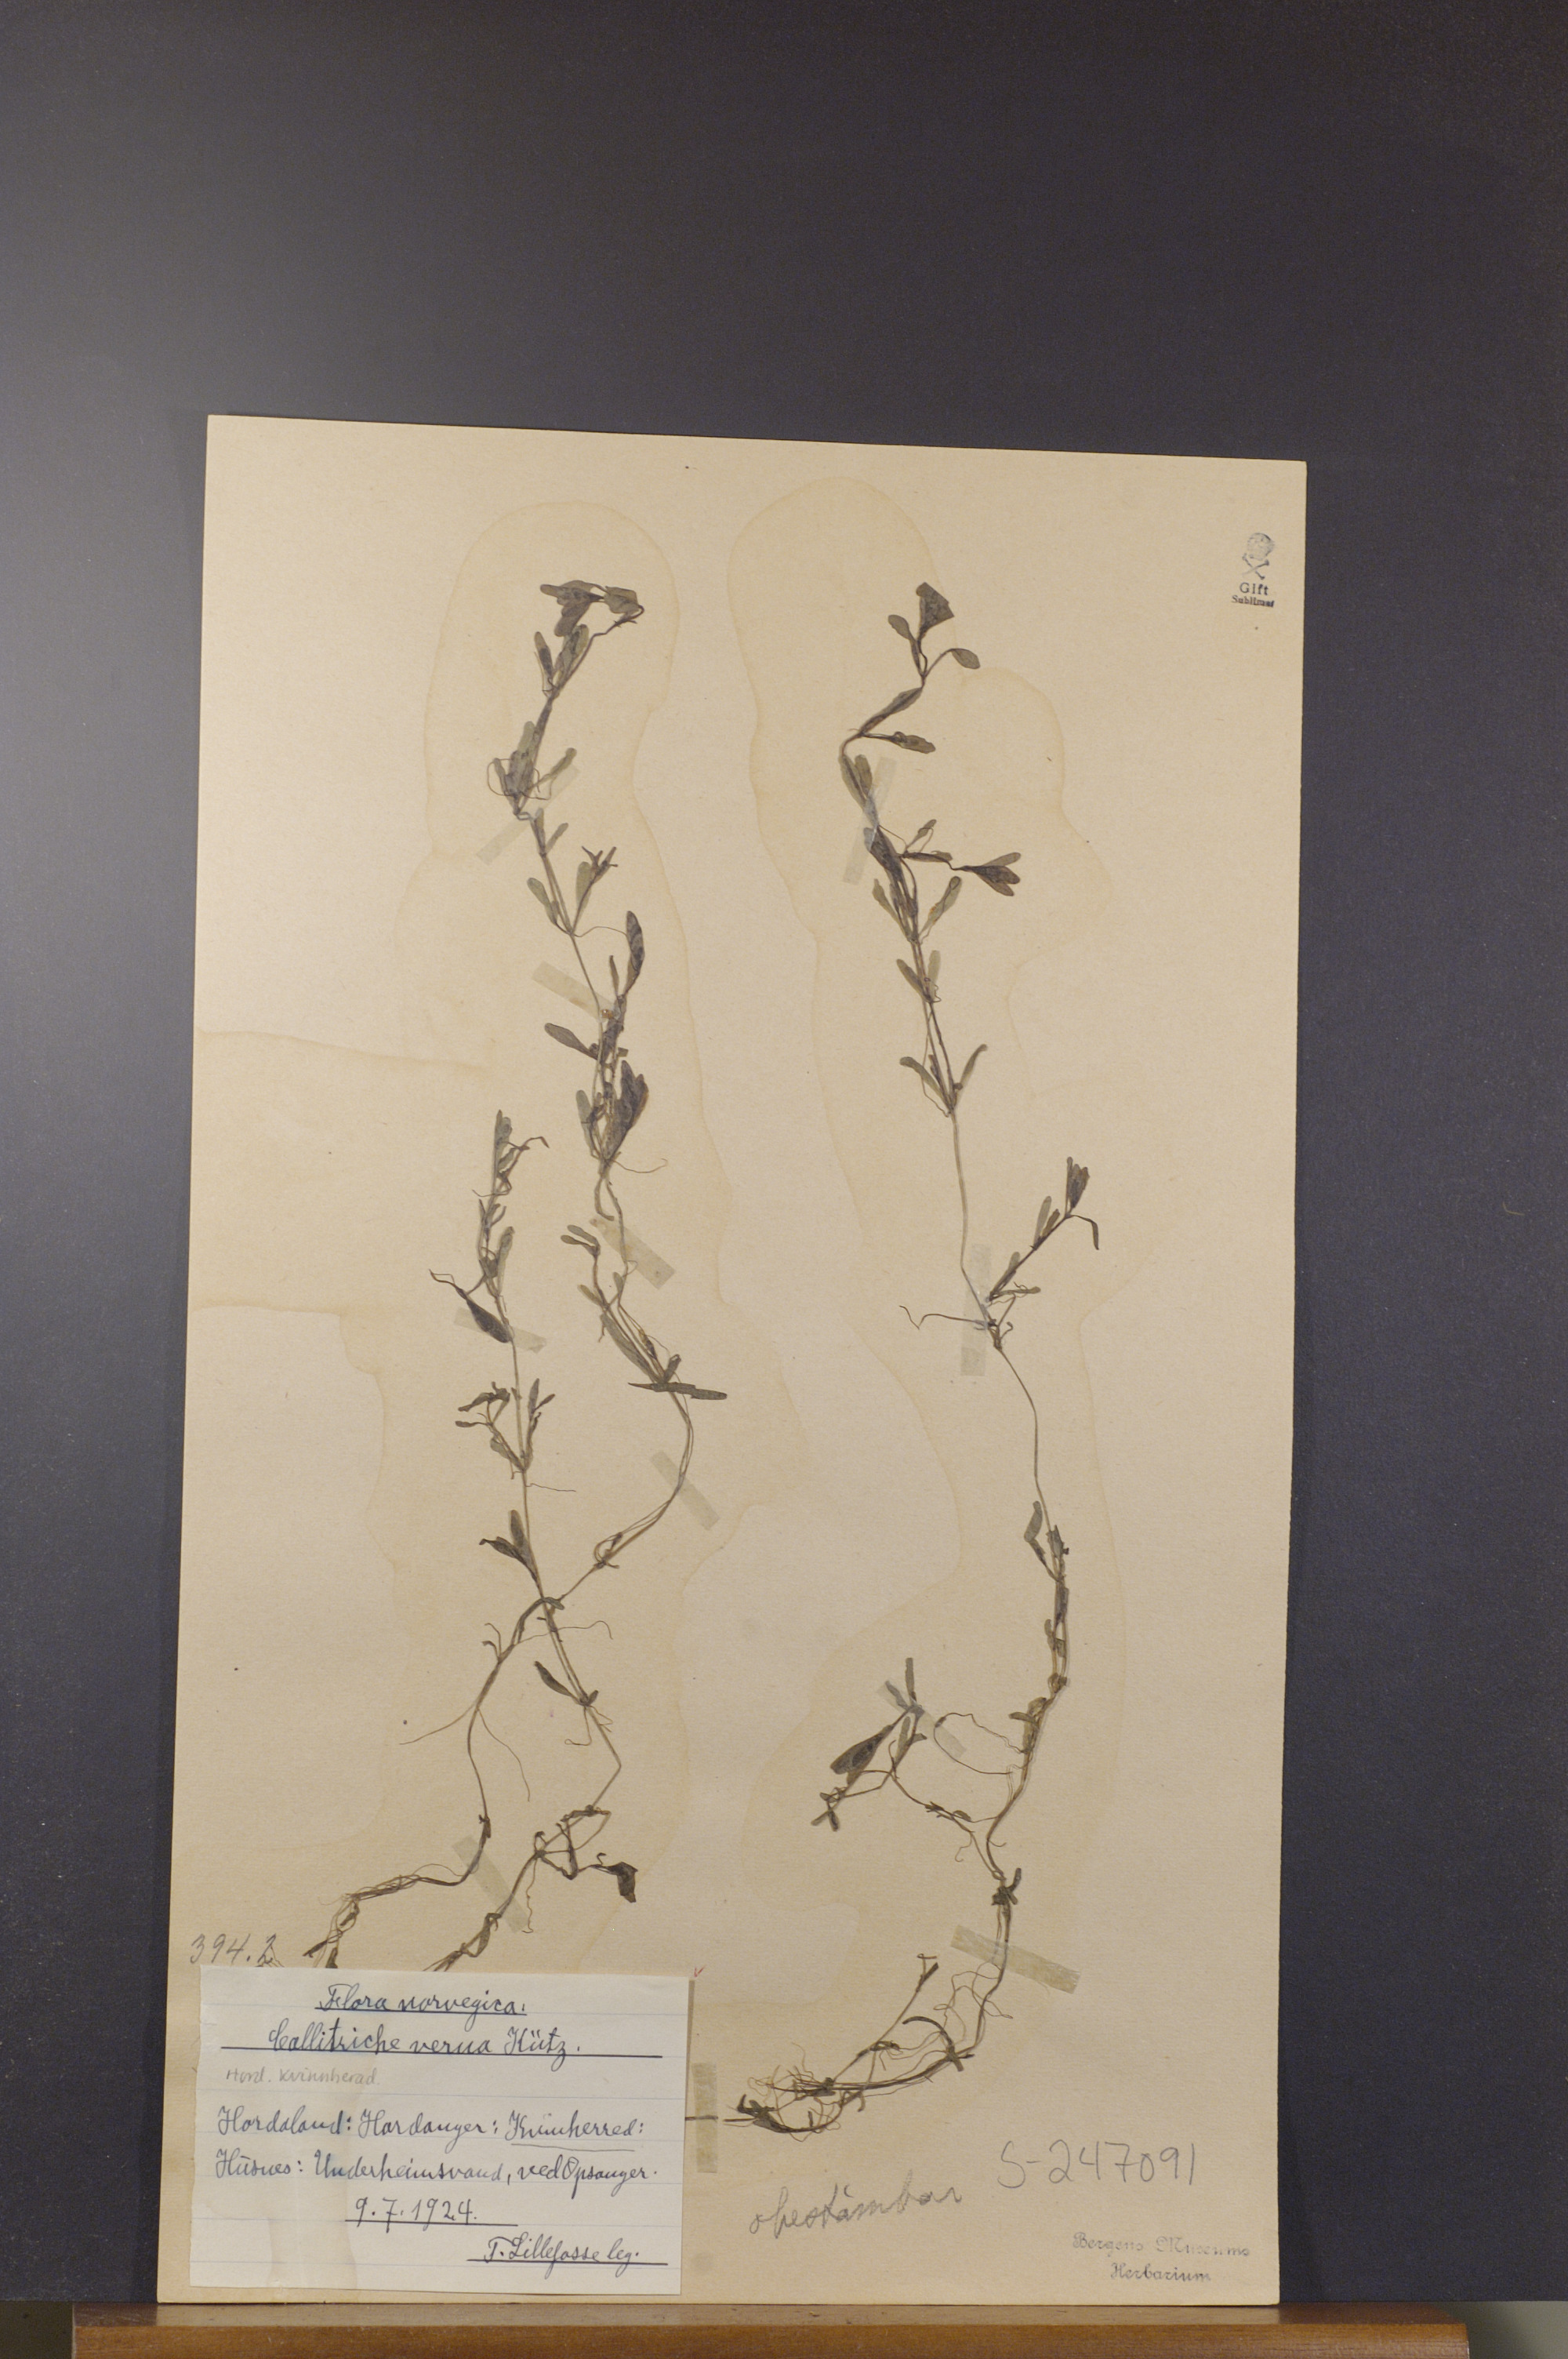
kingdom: Plantae
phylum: Tracheophyta
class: Magnoliopsida
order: Lamiales
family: Plantaginaceae
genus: Callitriche
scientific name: Callitriche palustris
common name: Spring water-starwort
